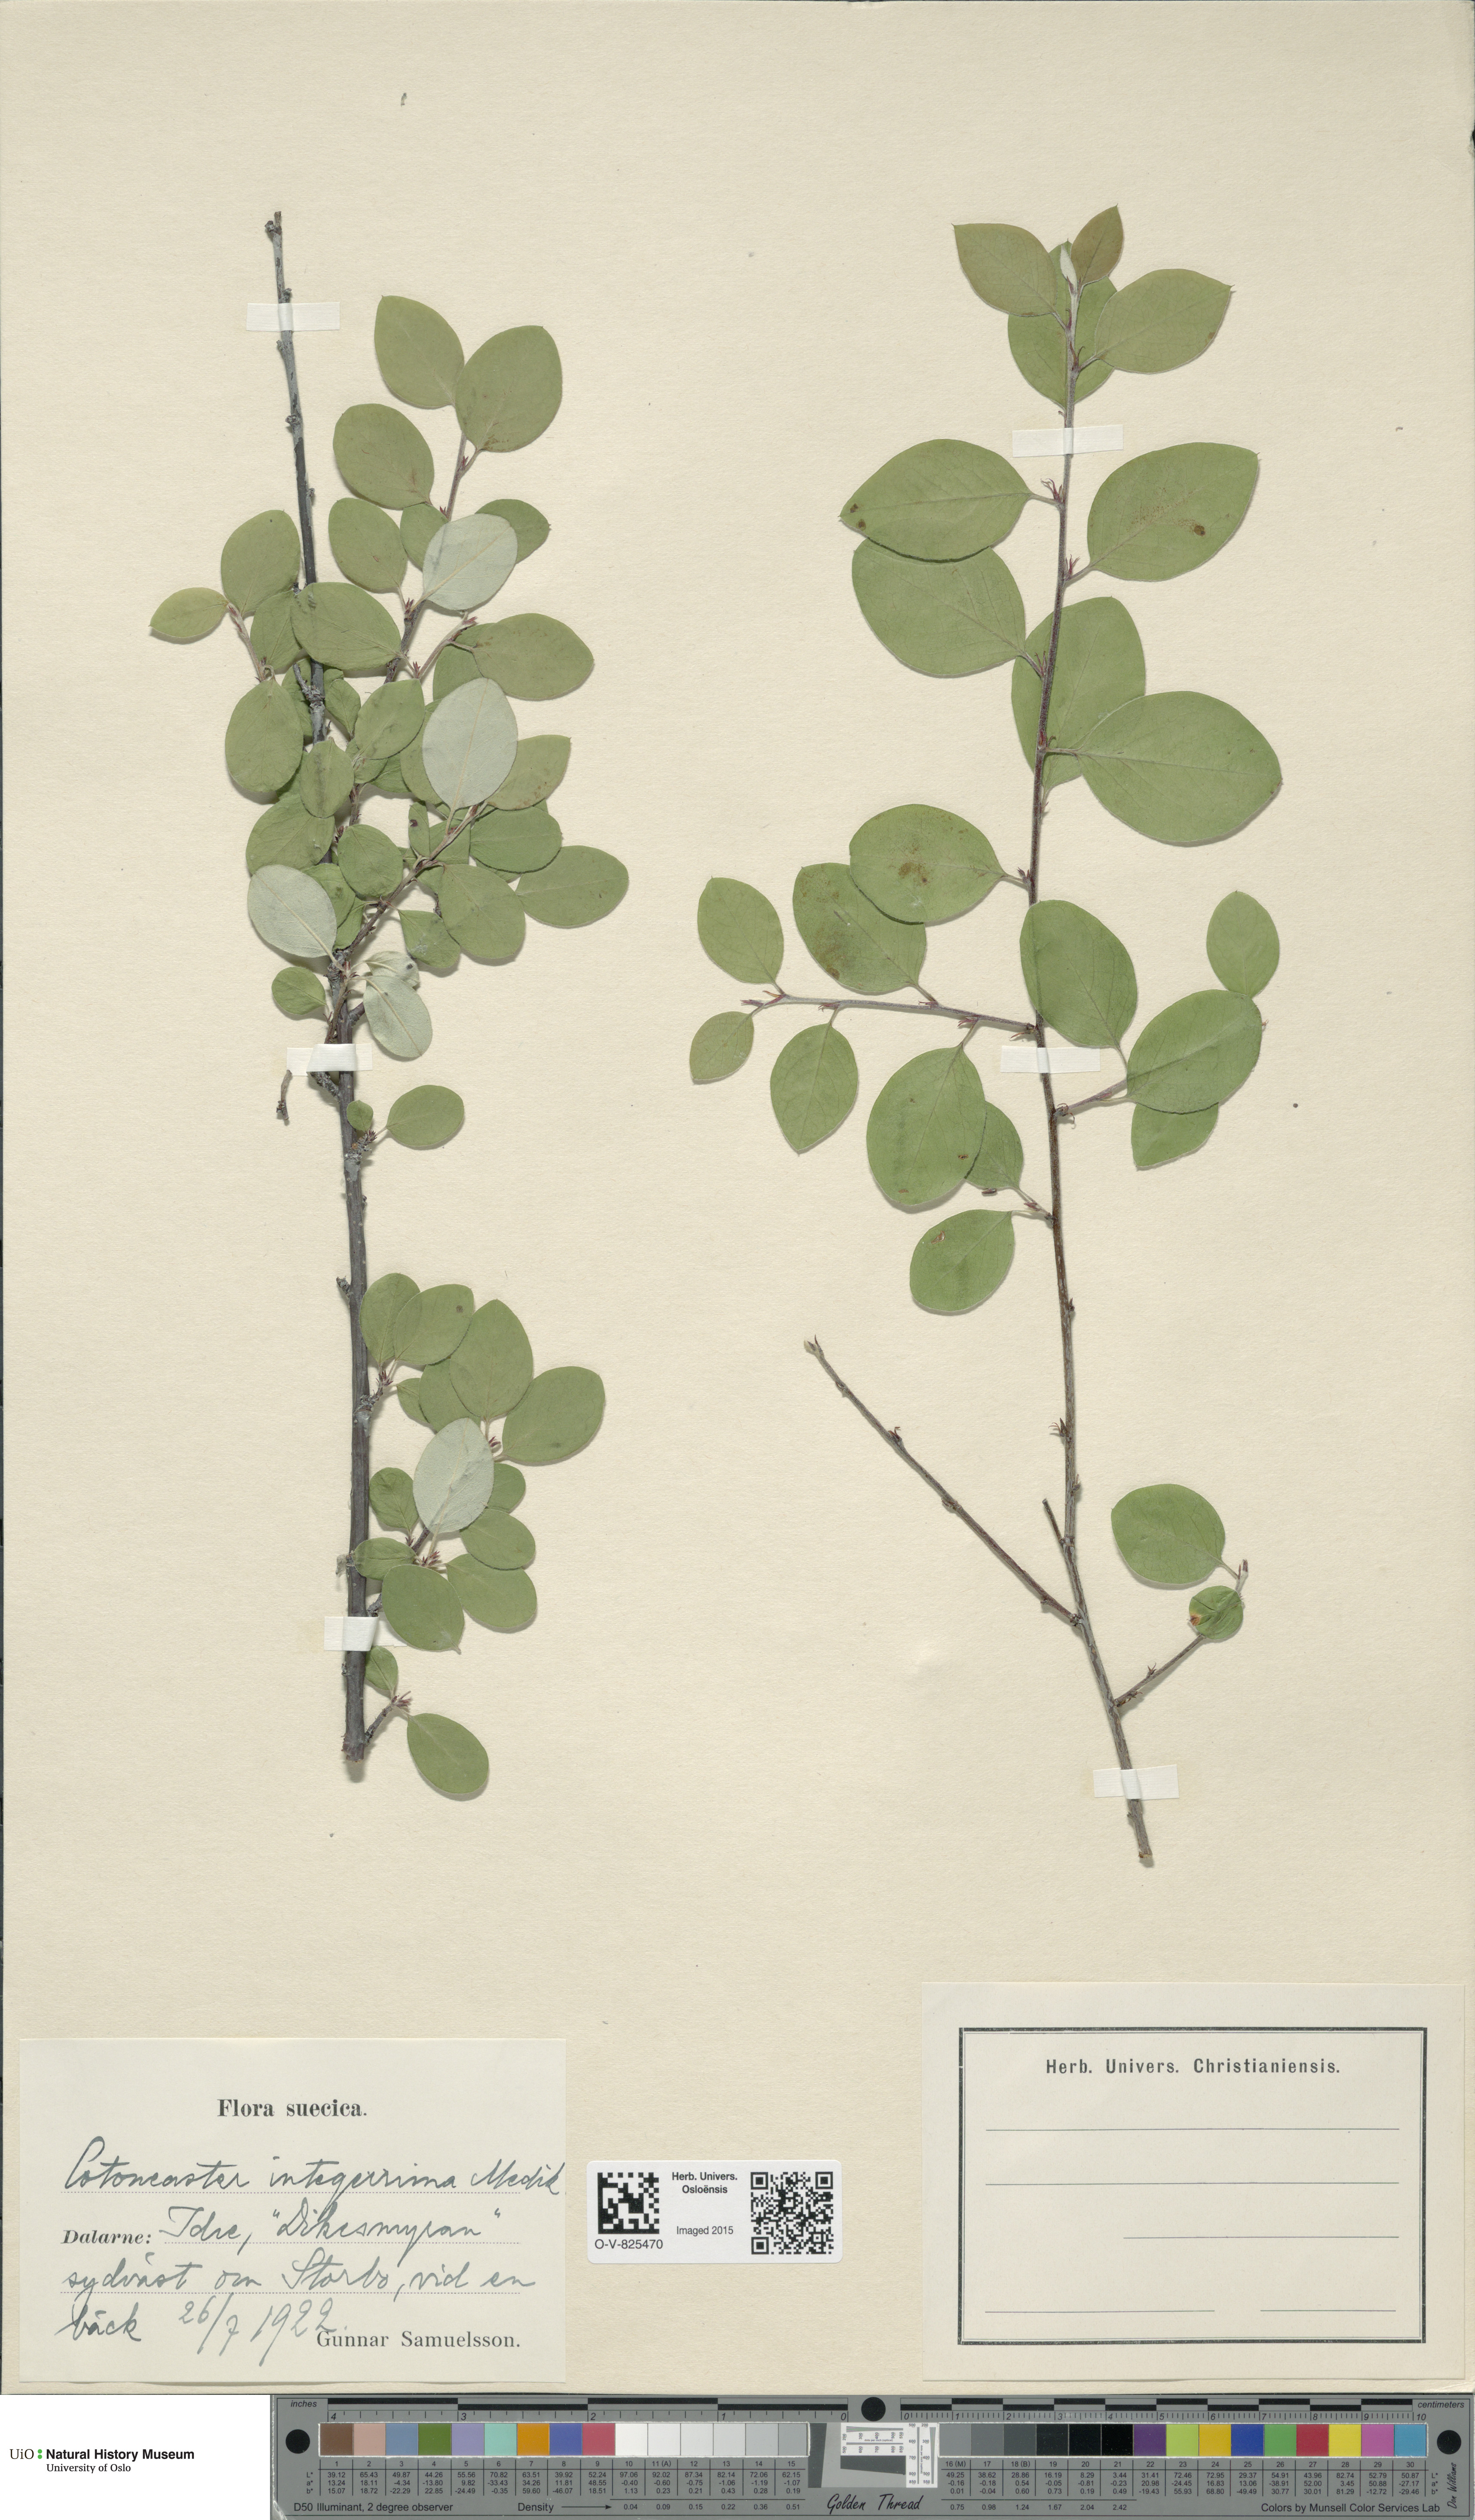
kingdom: Plantae
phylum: Tracheophyta
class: Magnoliopsida
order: Rosales
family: Rosaceae
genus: Cotoneaster
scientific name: Cotoneaster integerrimus
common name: Wild cotoneaster
